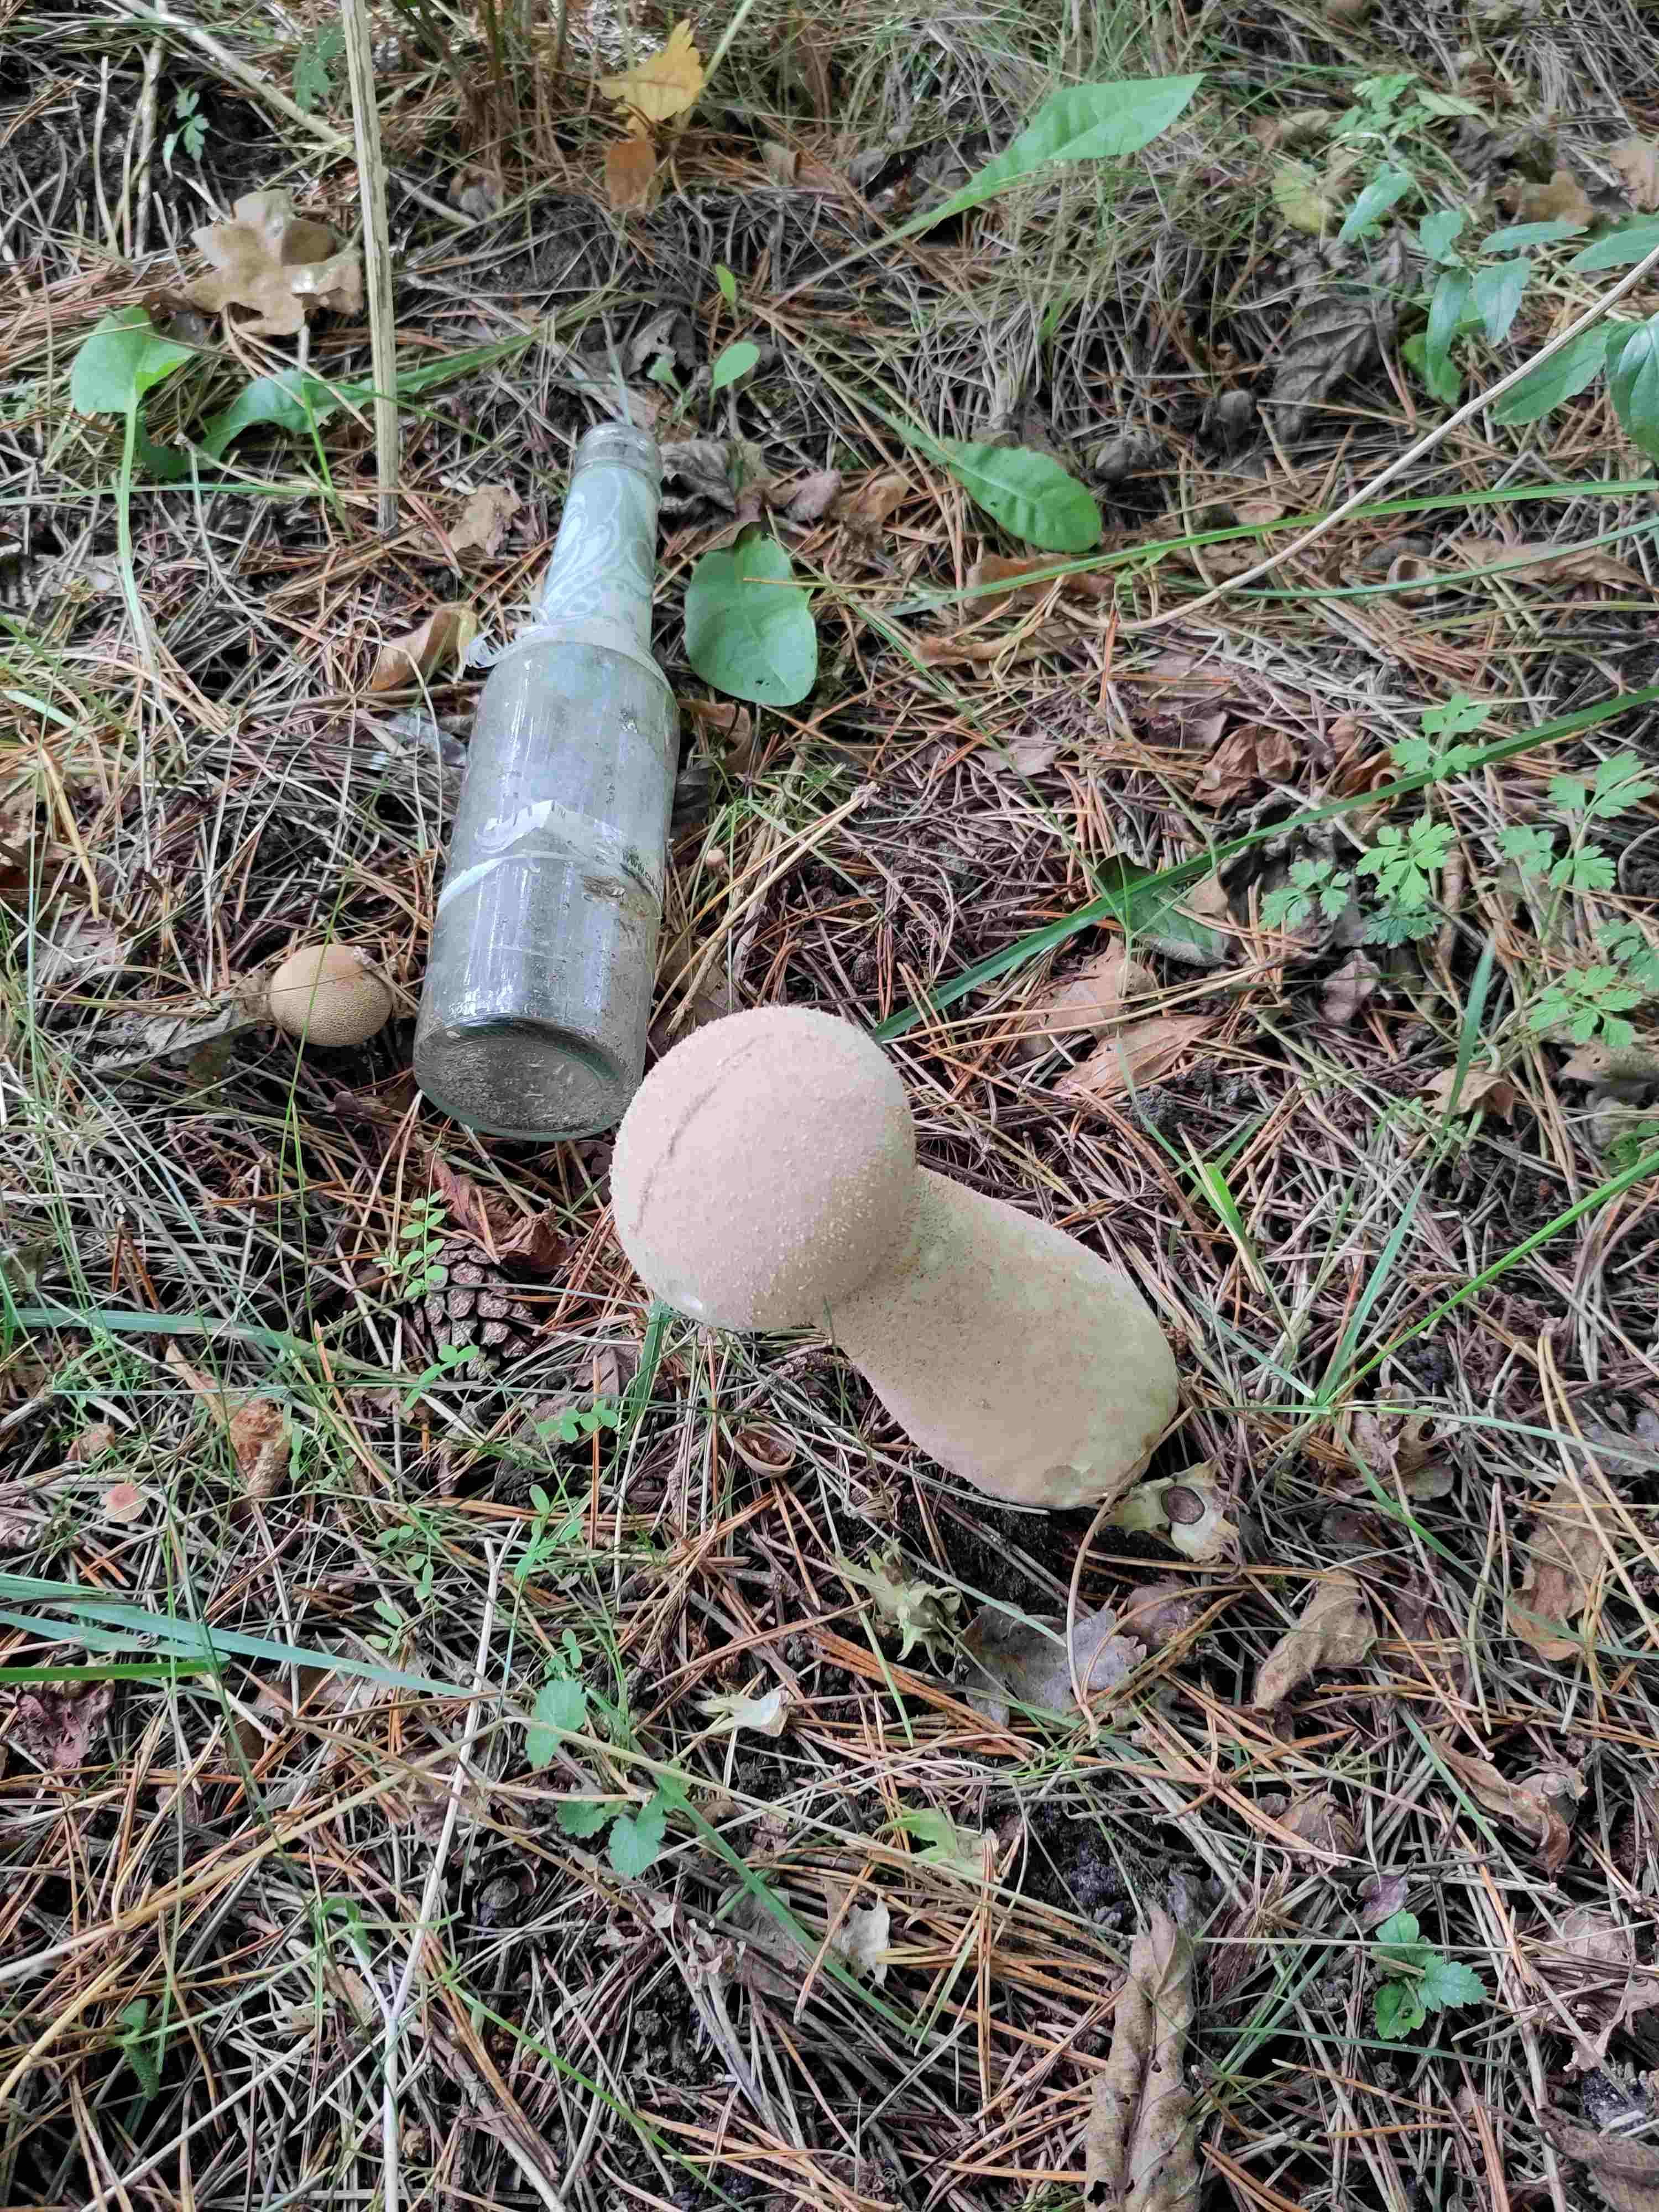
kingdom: Fungi
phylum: Basidiomycota
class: Agaricomycetes
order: Agaricales
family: Lycoperdaceae
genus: Lycoperdon
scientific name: Lycoperdon excipuliforme
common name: højstokket støvbold
